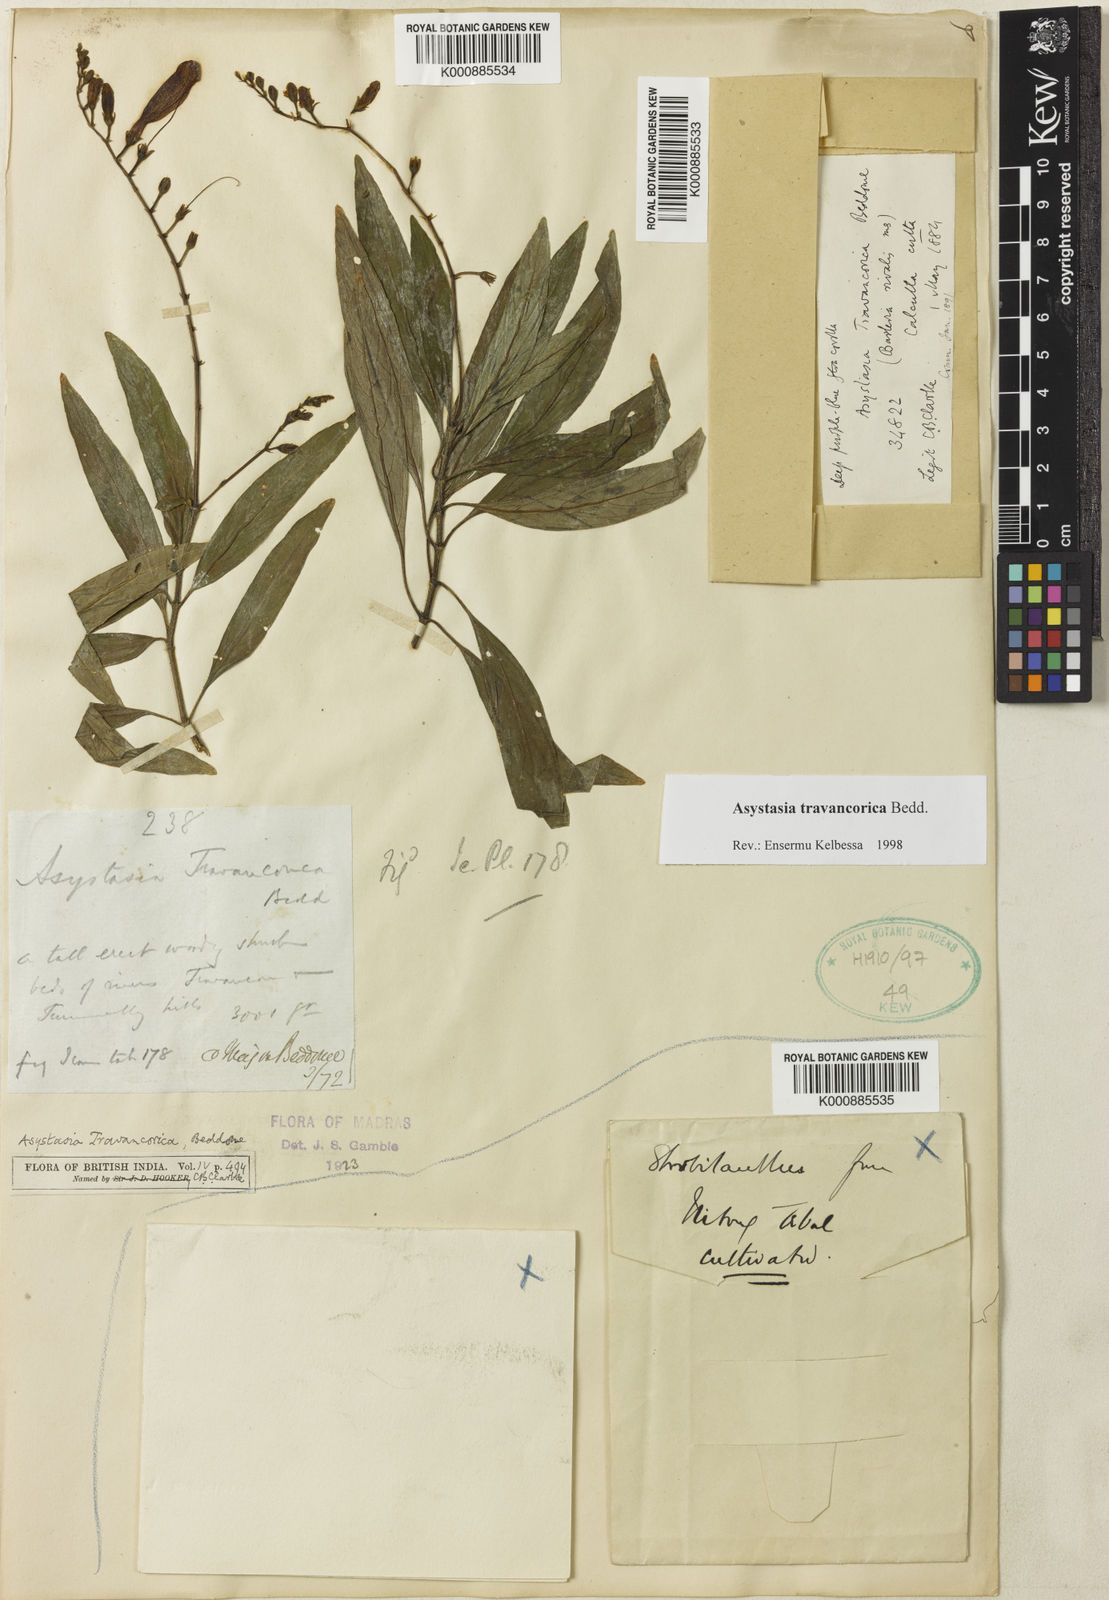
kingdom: Plantae
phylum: Tracheophyta
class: Magnoliopsida
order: Lamiales
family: Acanthaceae
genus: Asystasia
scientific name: Asystasia travancorica
